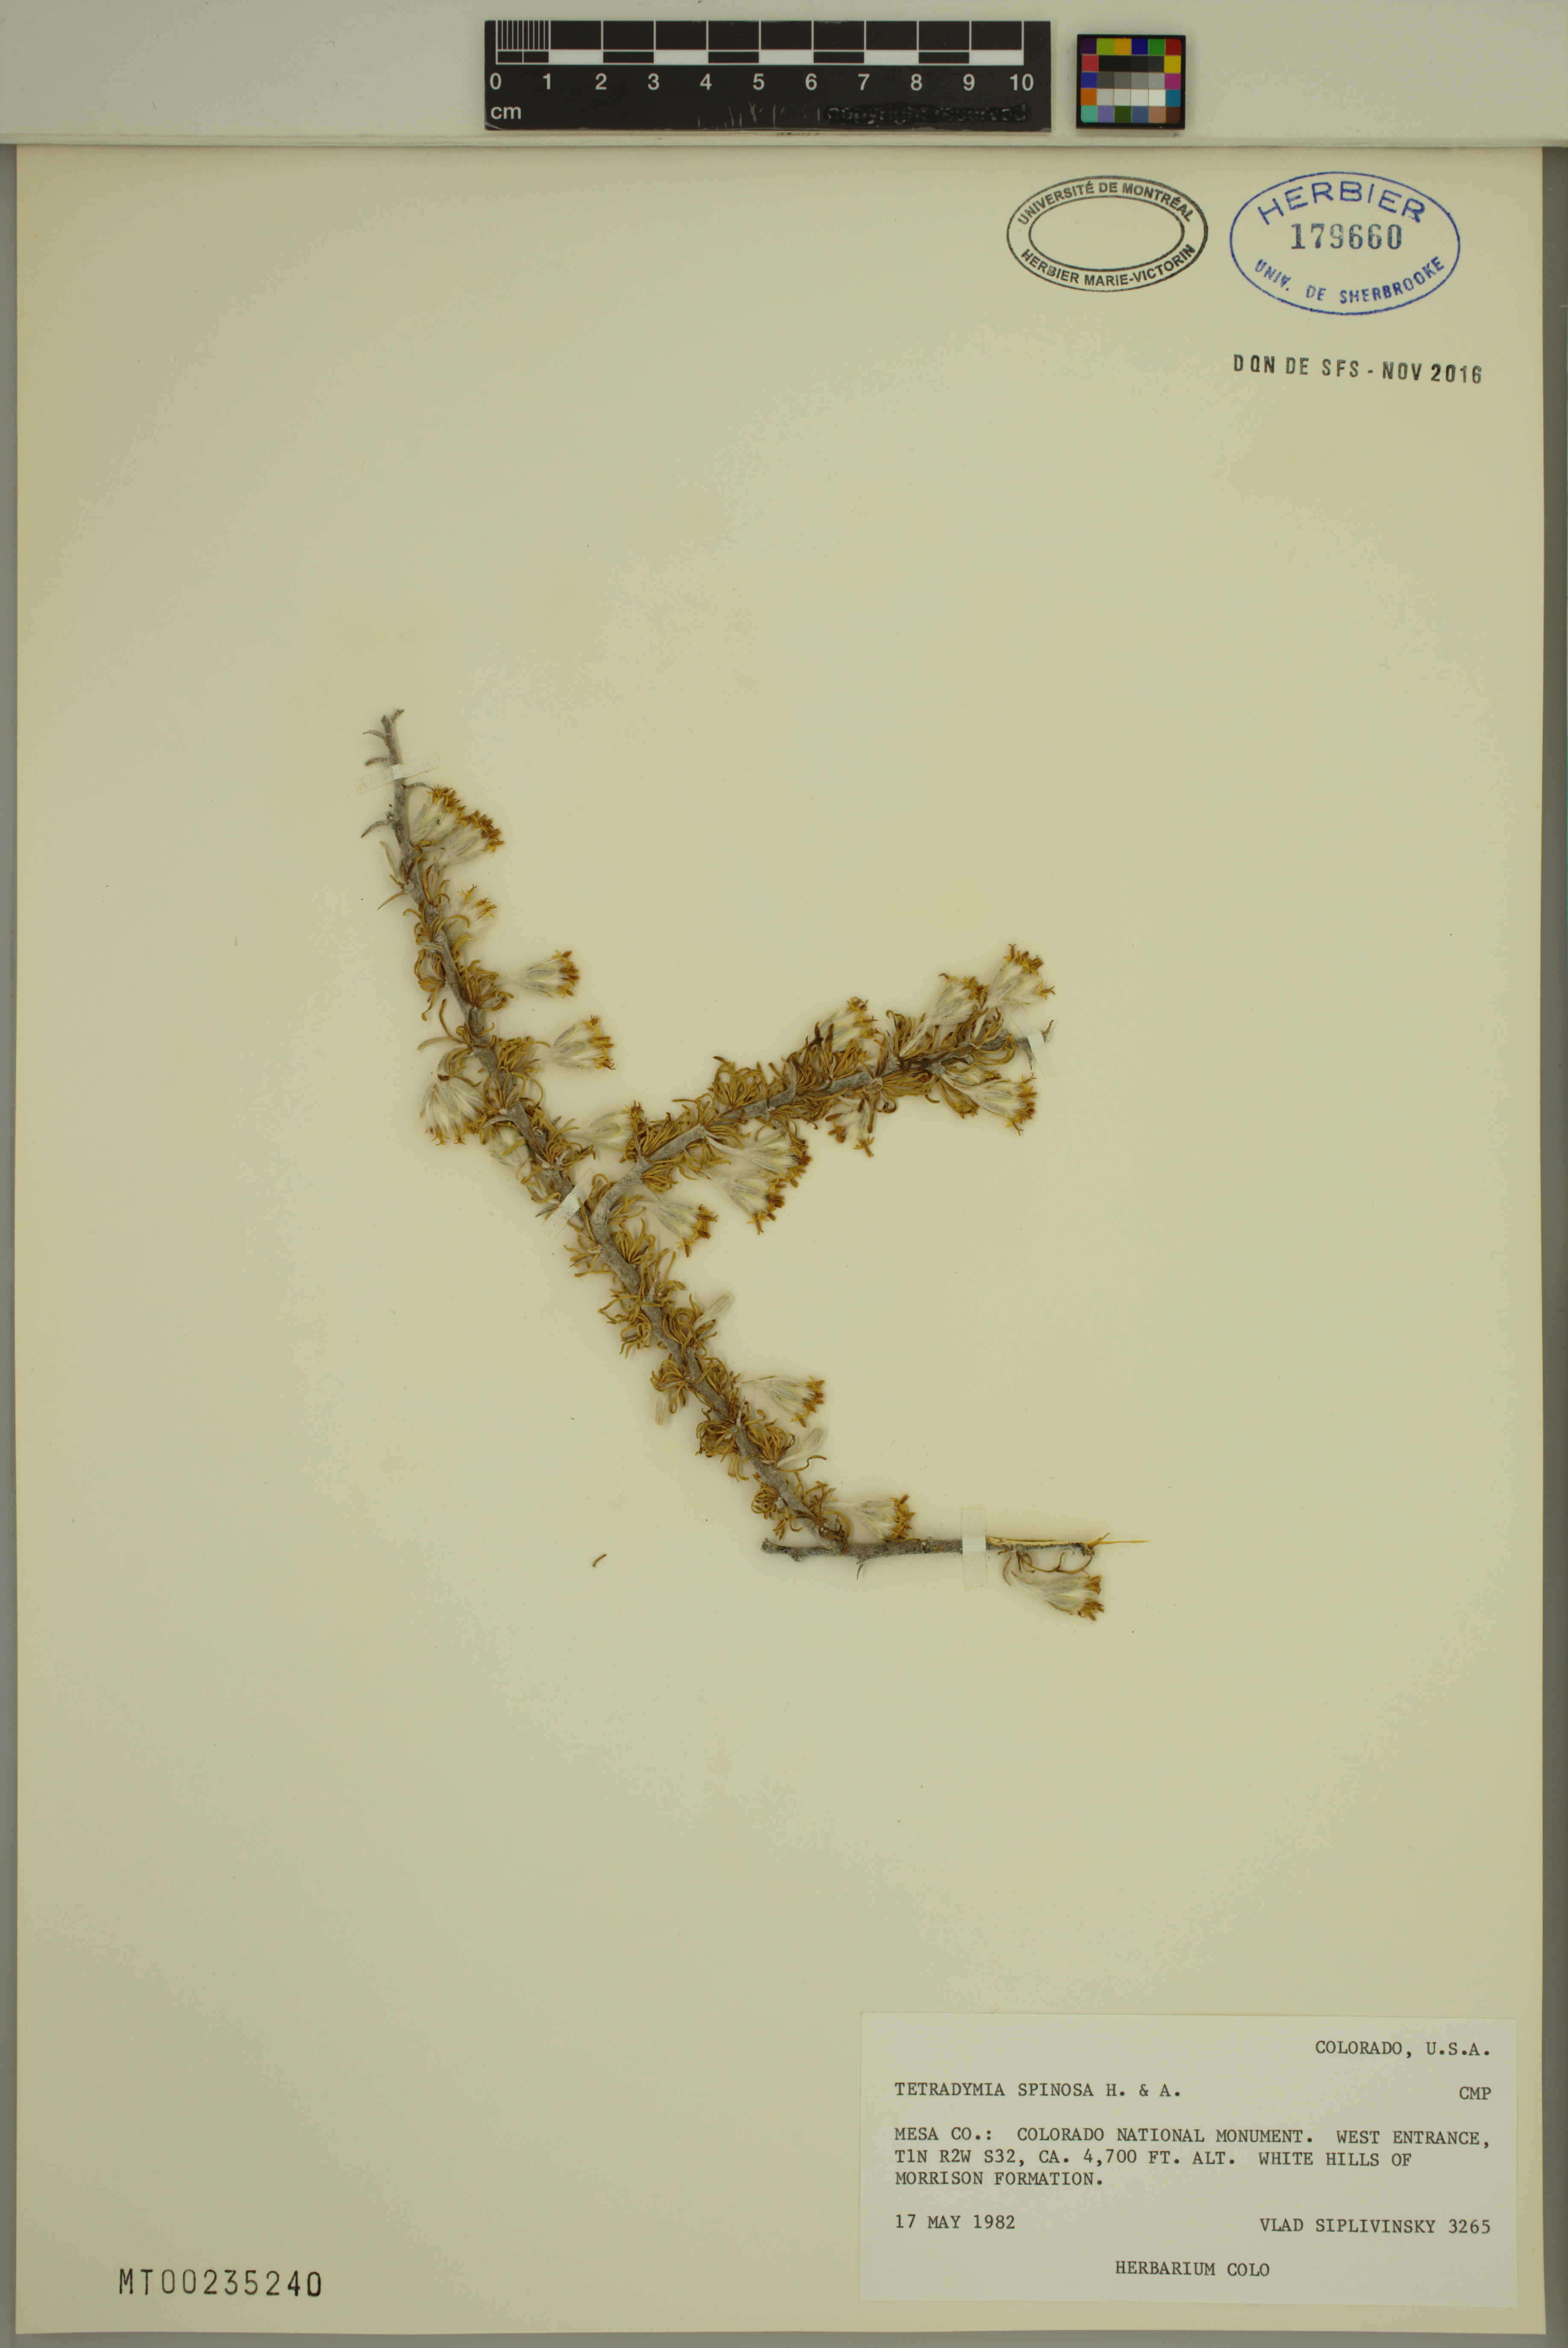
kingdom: Plantae
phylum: Tracheophyta
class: Magnoliopsida
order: Asterales
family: Asteraceae
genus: Tetradymia
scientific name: Tetradymia spinosa
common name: Thorny horsebrush
